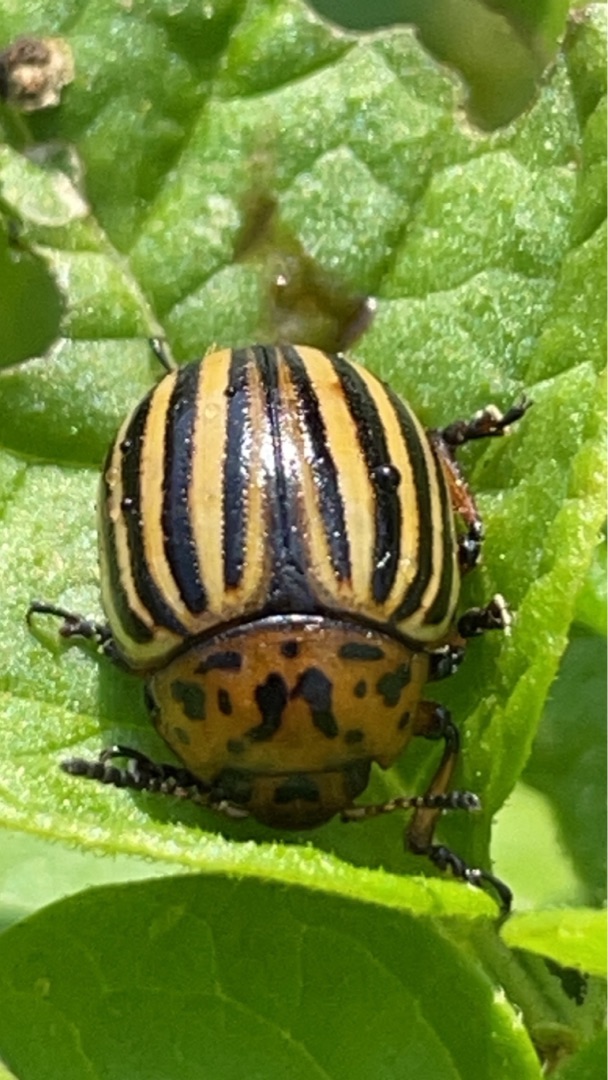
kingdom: Animalia
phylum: Arthropoda
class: Insecta
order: Coleoptera
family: Chrysomelidae
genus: Leptinotarsa
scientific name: Leptinotarsa decemlineata
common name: Coloradobille
